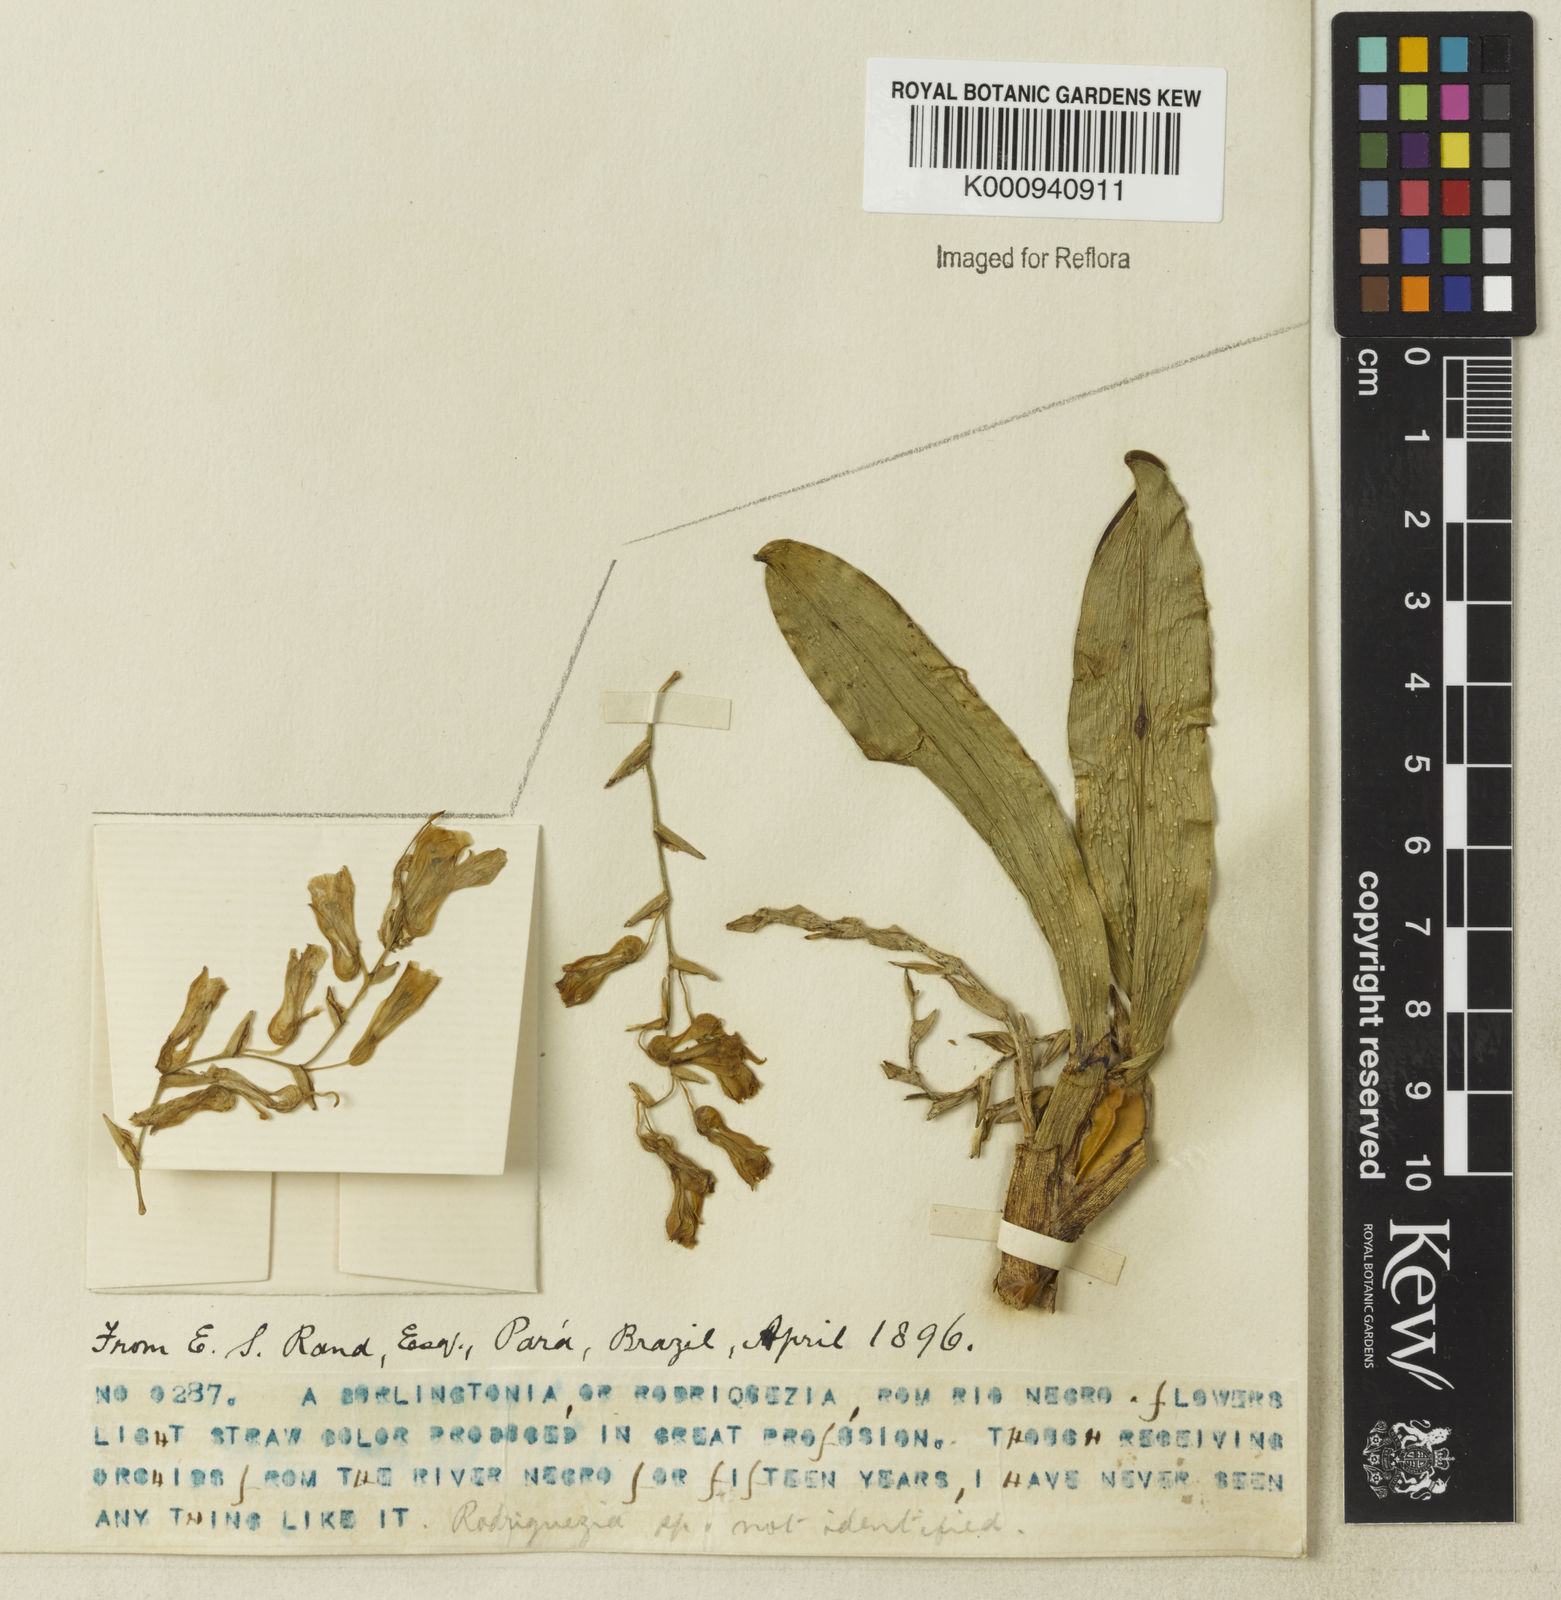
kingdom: Plantae
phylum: Tracheophyta
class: Liliopsida
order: Asparagales
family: Orchidaceae
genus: Rodriguezia
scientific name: Rodriguezia luteola
